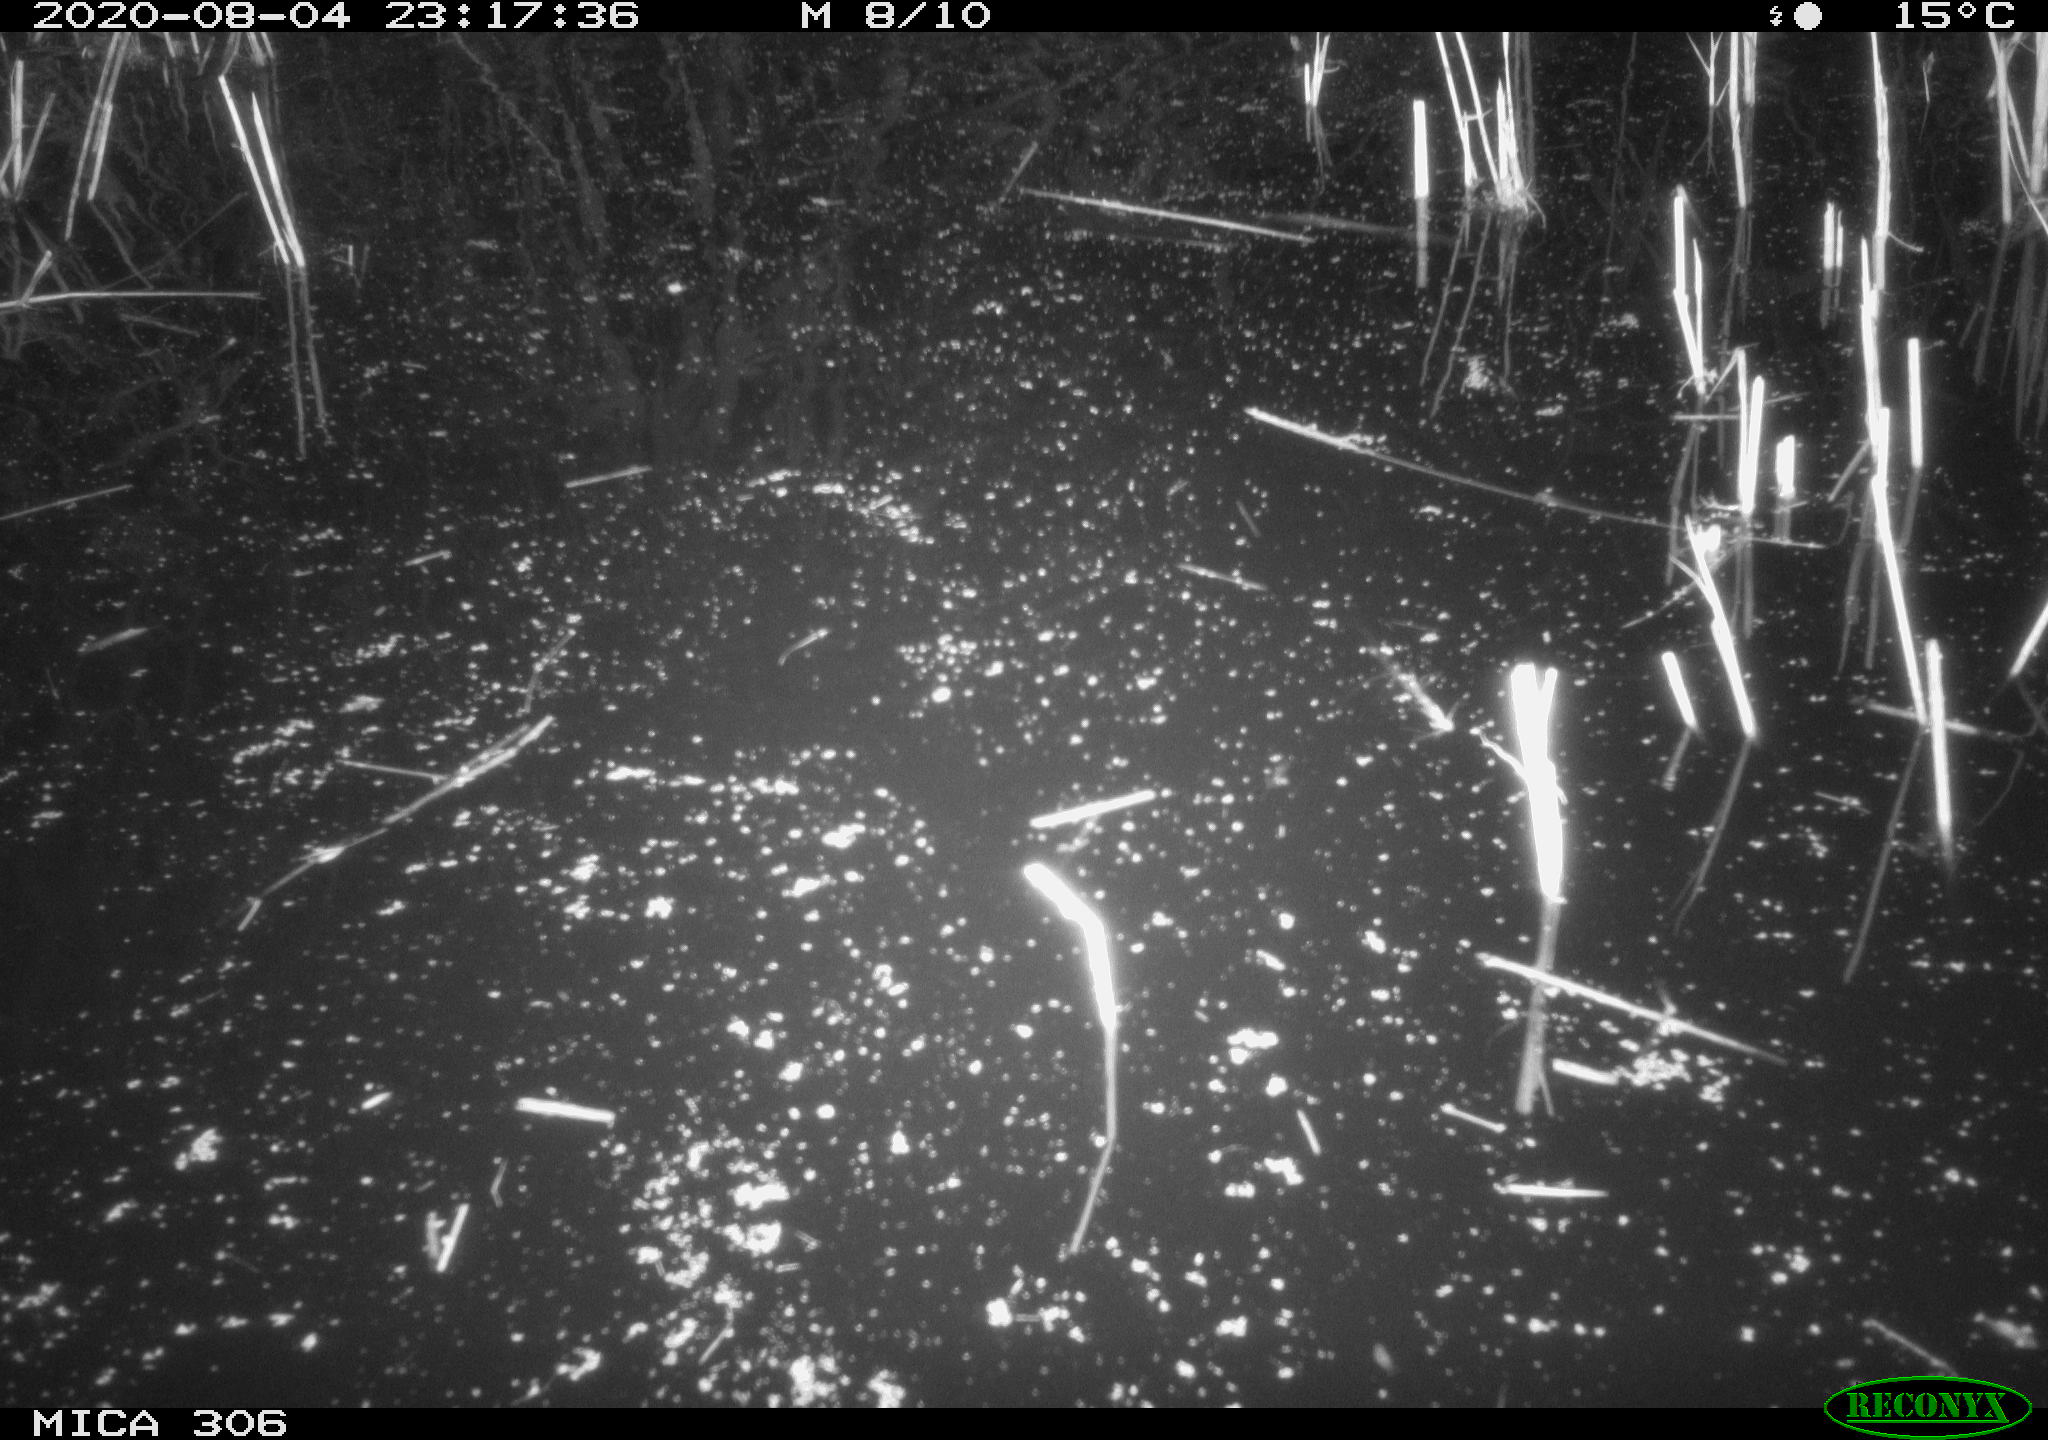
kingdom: Animalia
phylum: Chordata
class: Mammalia
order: Rodentia
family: Cricetidae
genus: Ondatra
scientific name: Ondatra zibethicus
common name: Muskrat
